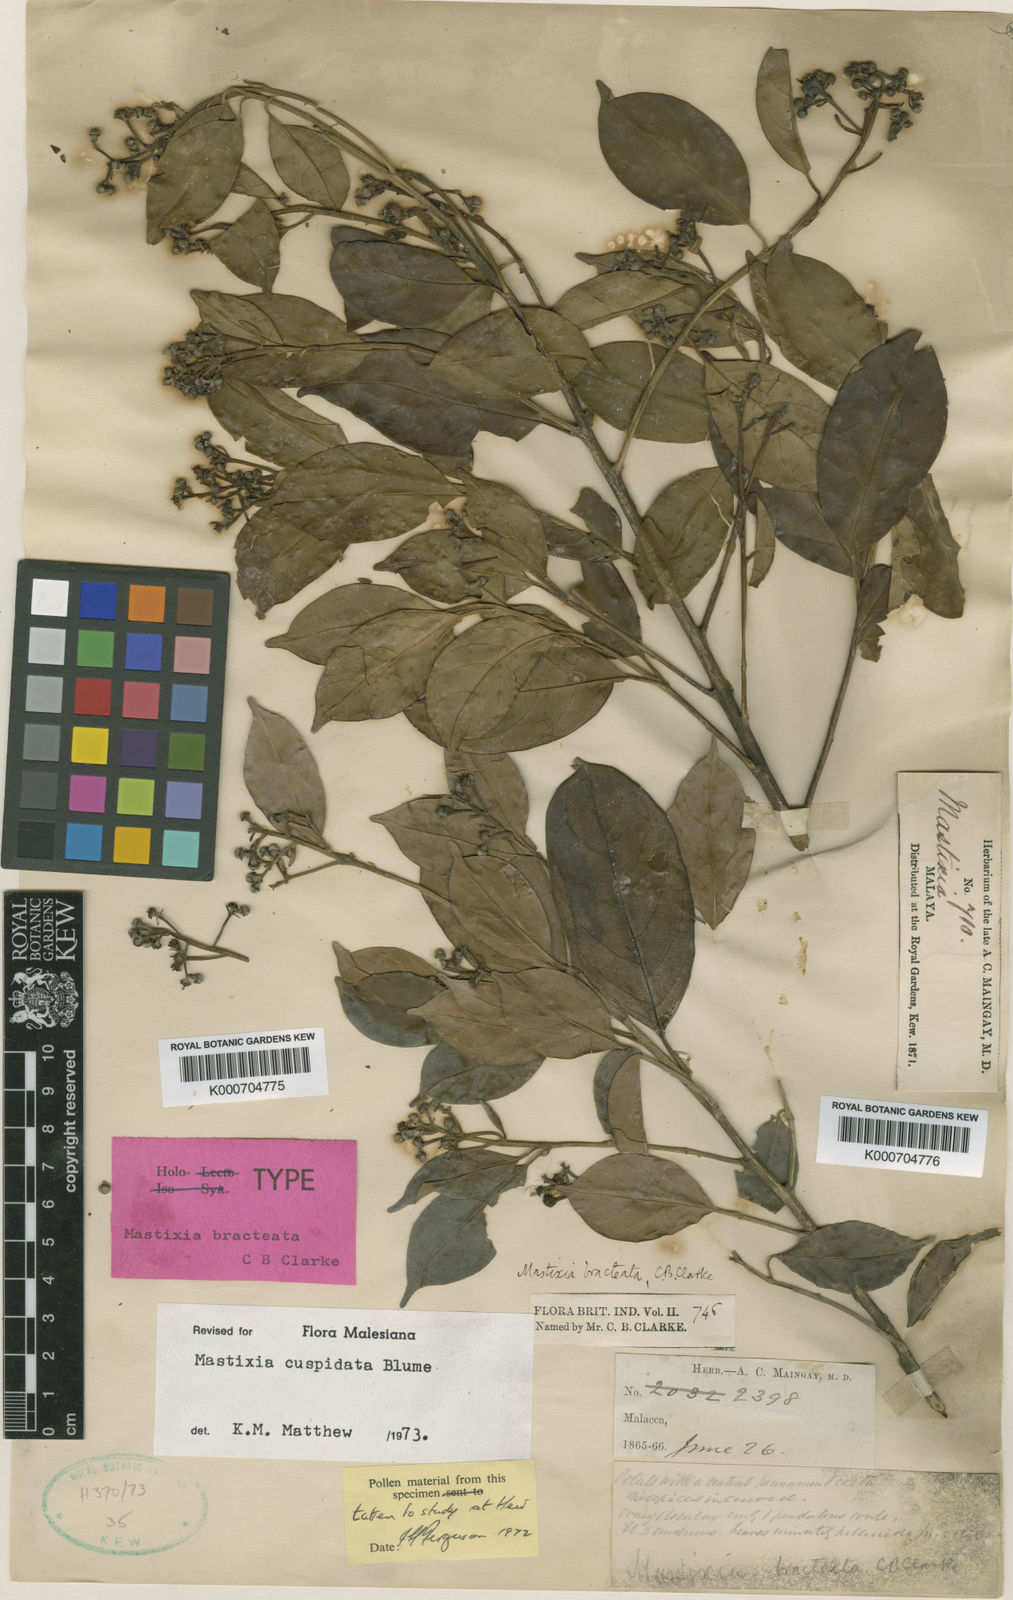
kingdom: Plantae
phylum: Tracheophyta
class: Magnoliopsida
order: Cornales
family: Nyssaceae
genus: Mastixia
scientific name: Mastixia cuspidata
